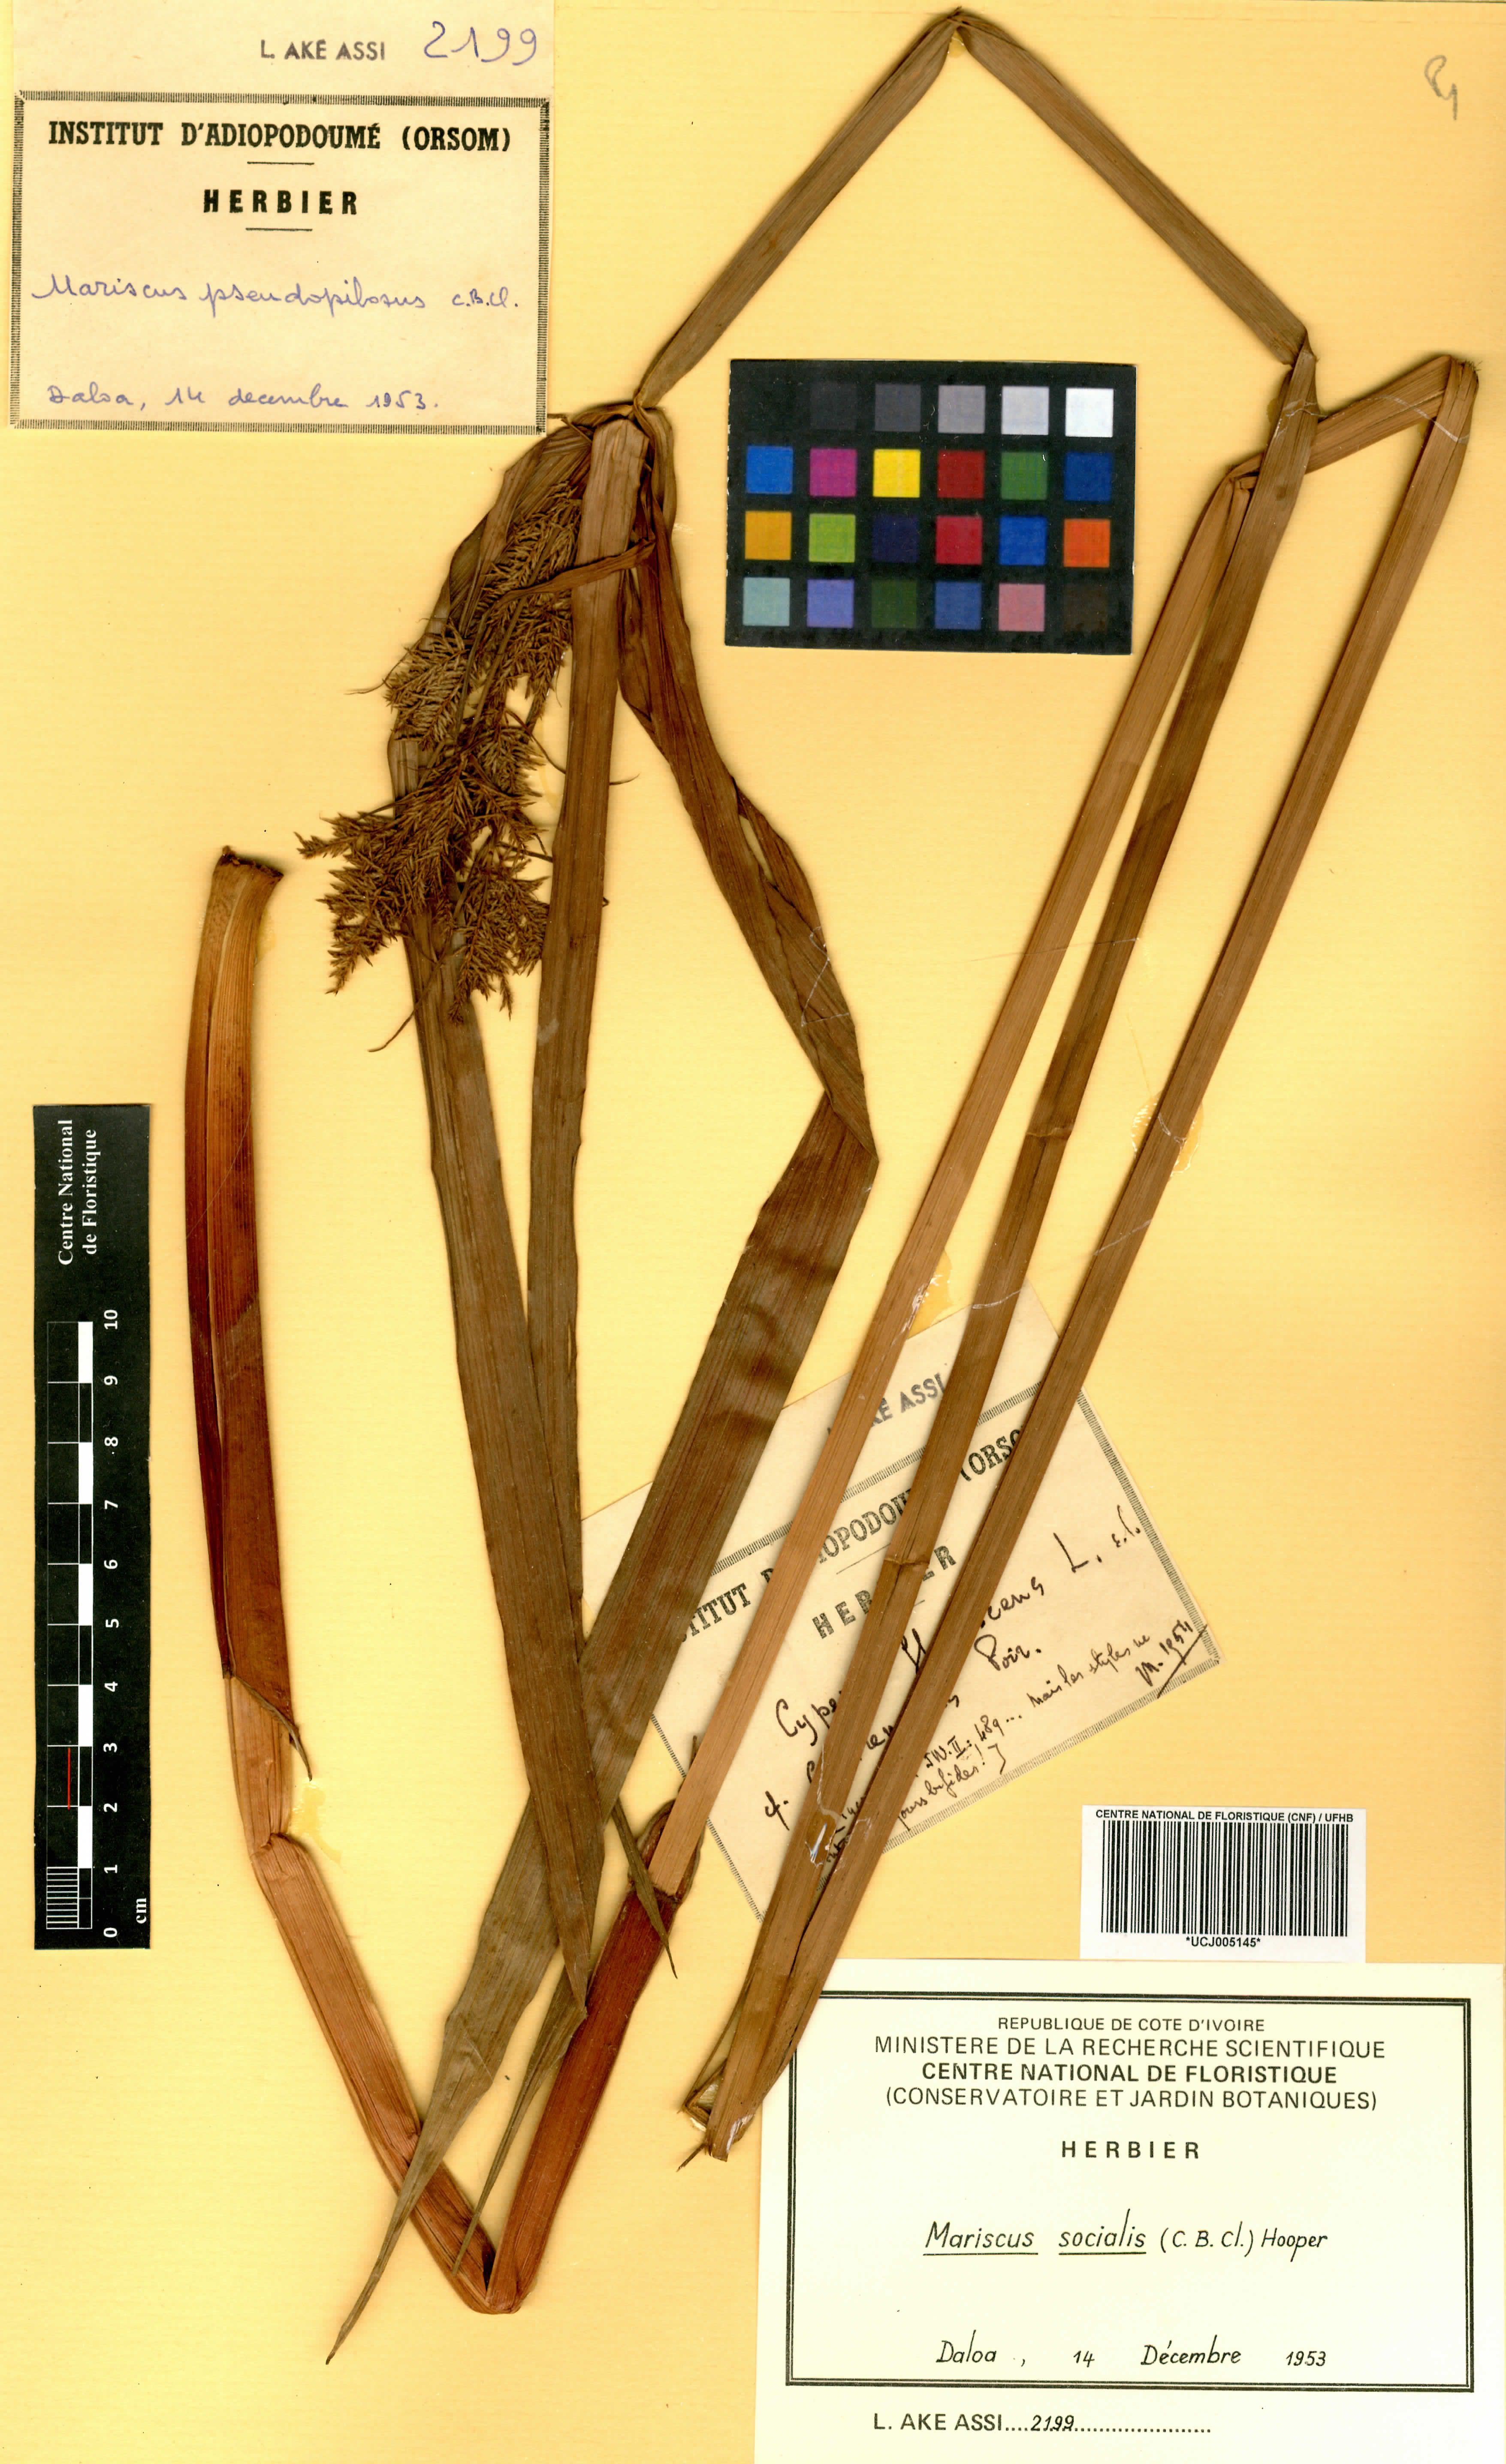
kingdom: Plantae
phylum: Tracheophyta
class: Liliopsida
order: Poales
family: Cyperaceae
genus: Cyperus
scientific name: Cyperus pseudopilosus
